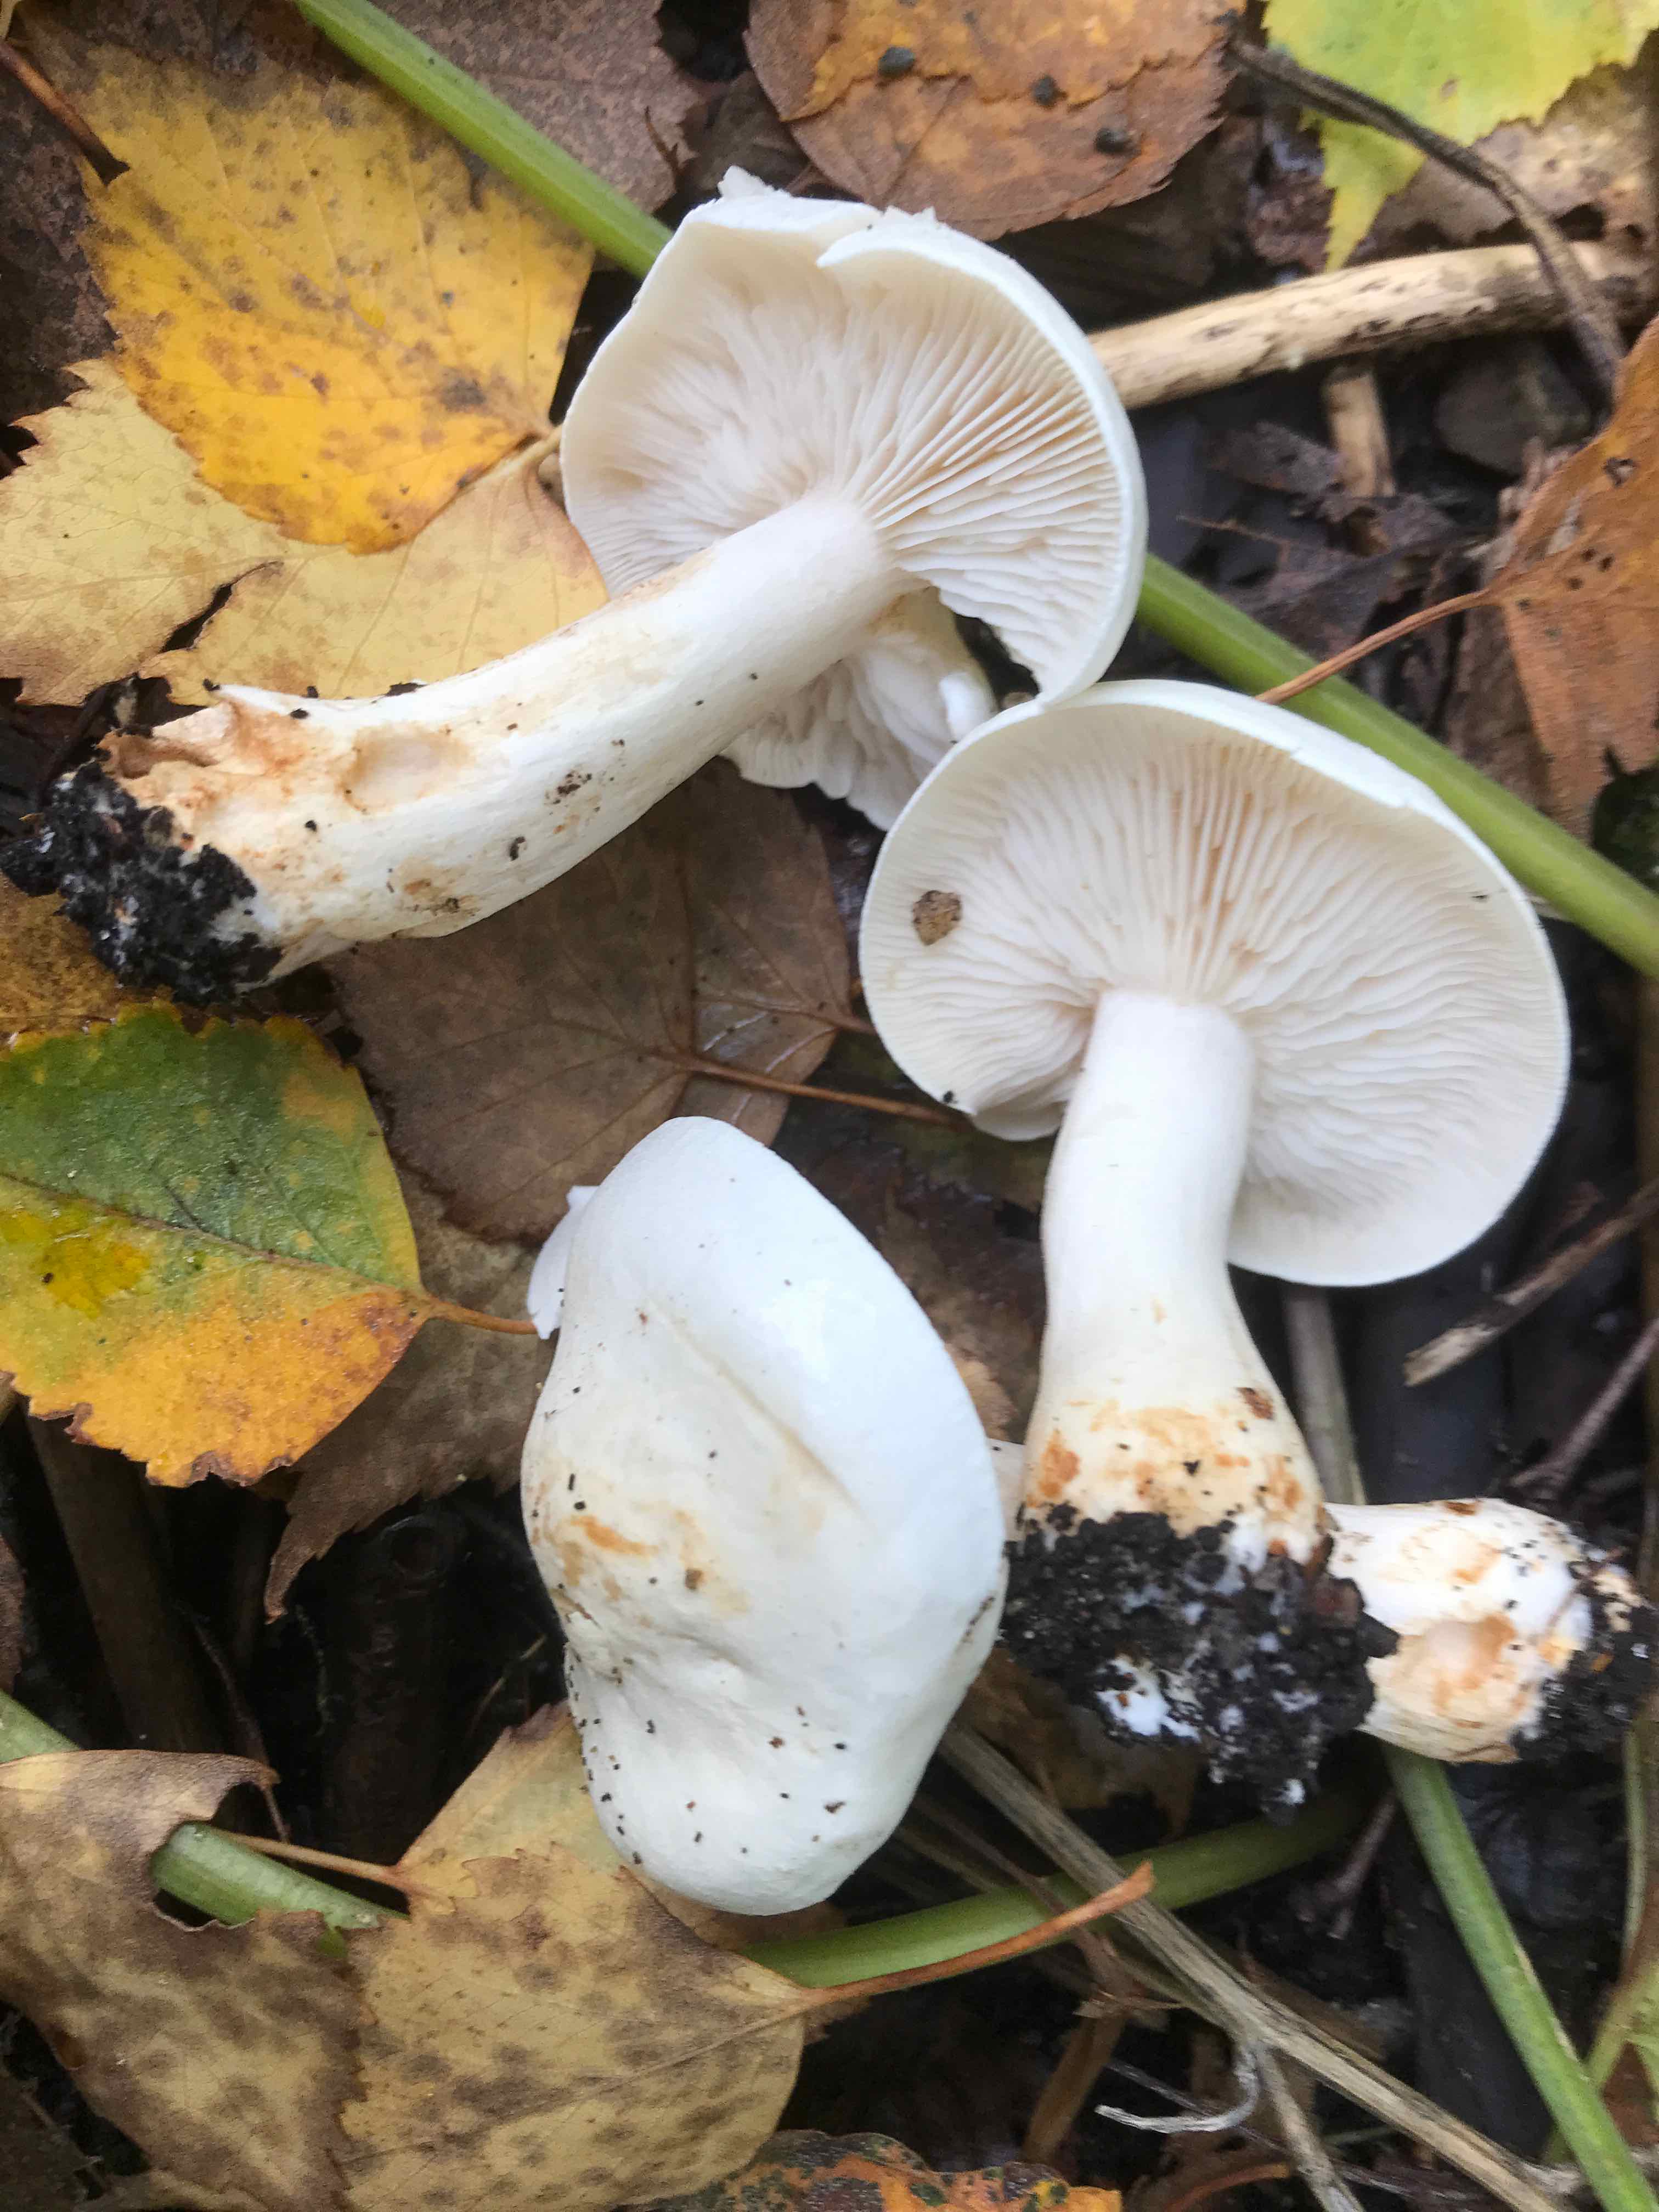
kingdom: Fungi
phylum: Basidiomycota
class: Agaricomycetes
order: Agaricales
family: Tricholomataceae
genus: Tricholoma
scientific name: Tricholoma stiparophyllum
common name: hvid ridderhat
